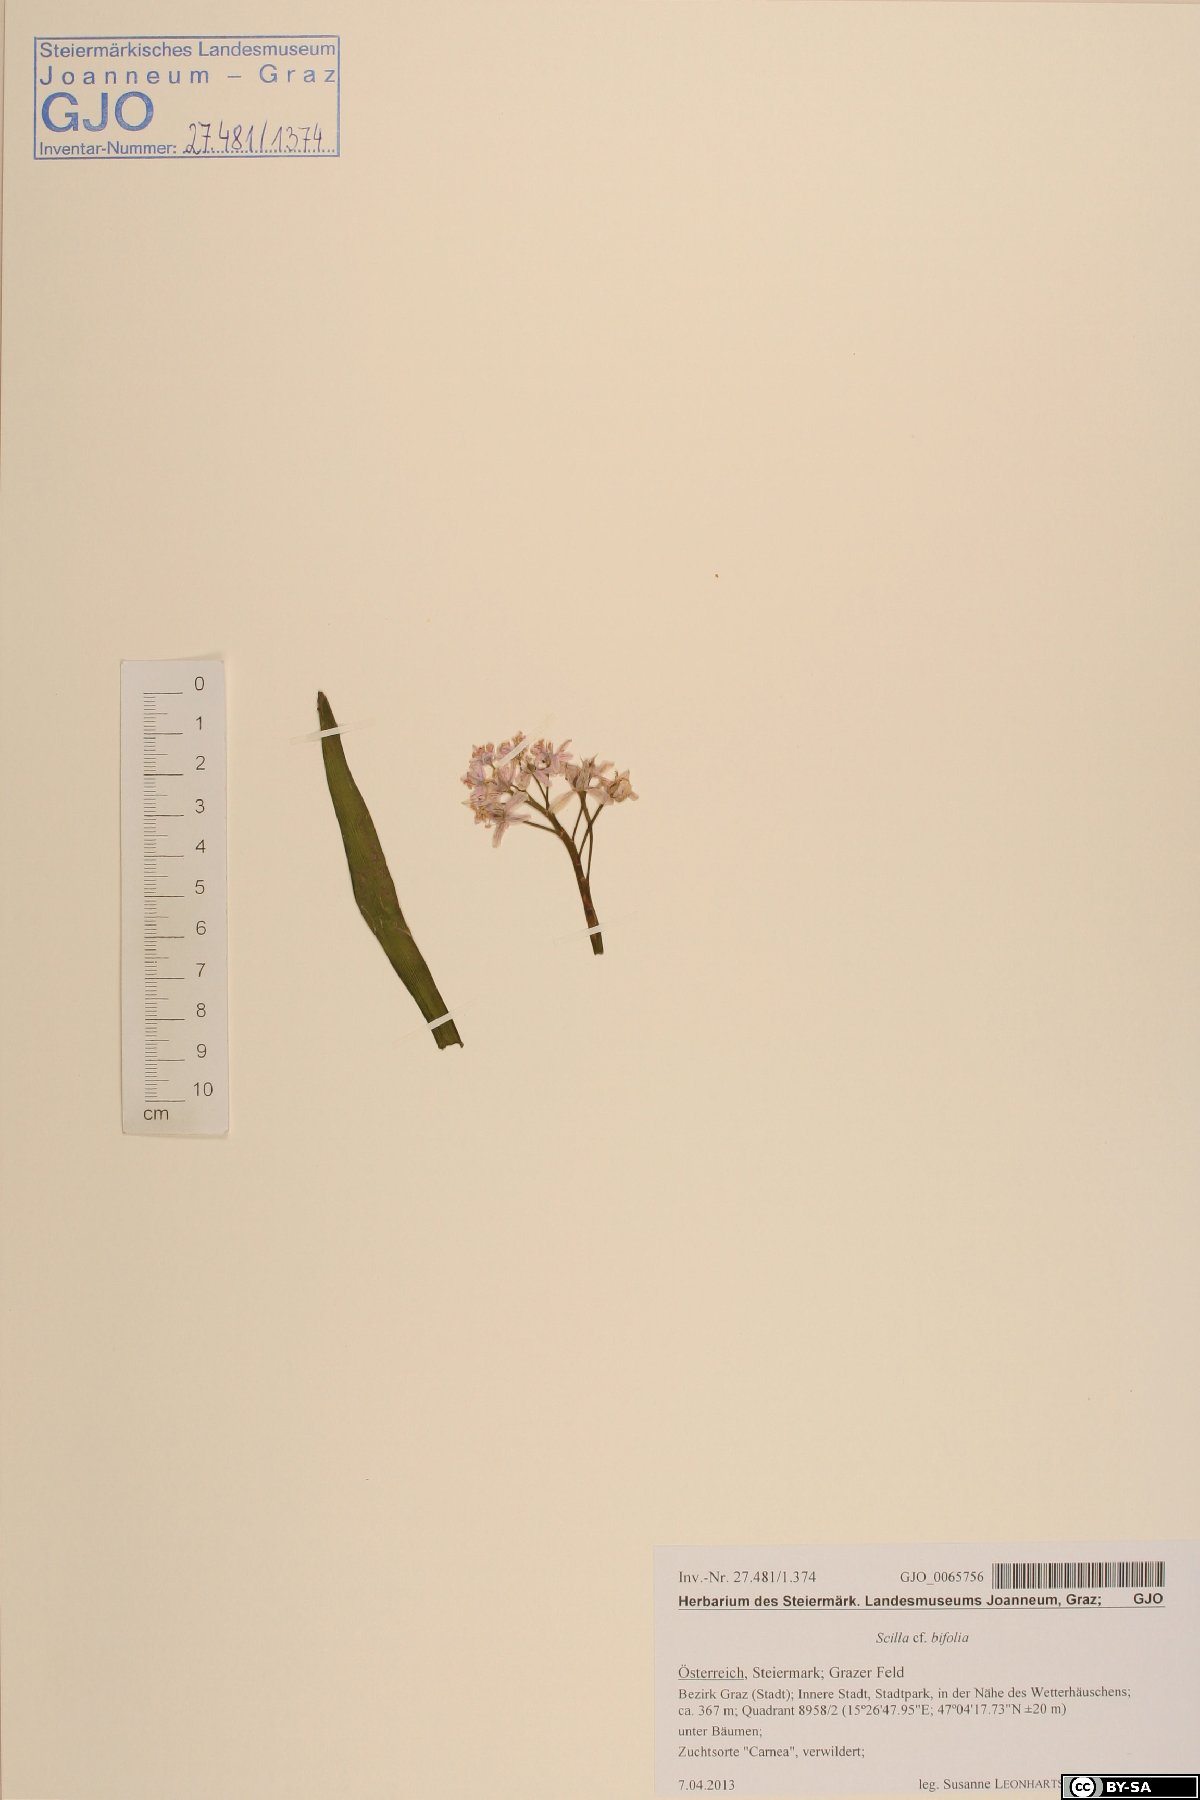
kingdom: Plantae
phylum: Tracheophyta
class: Liliopsida
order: Asparagales
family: Asparagaceae
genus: Scilla
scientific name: Scilla bifolia
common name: Alpine squill
